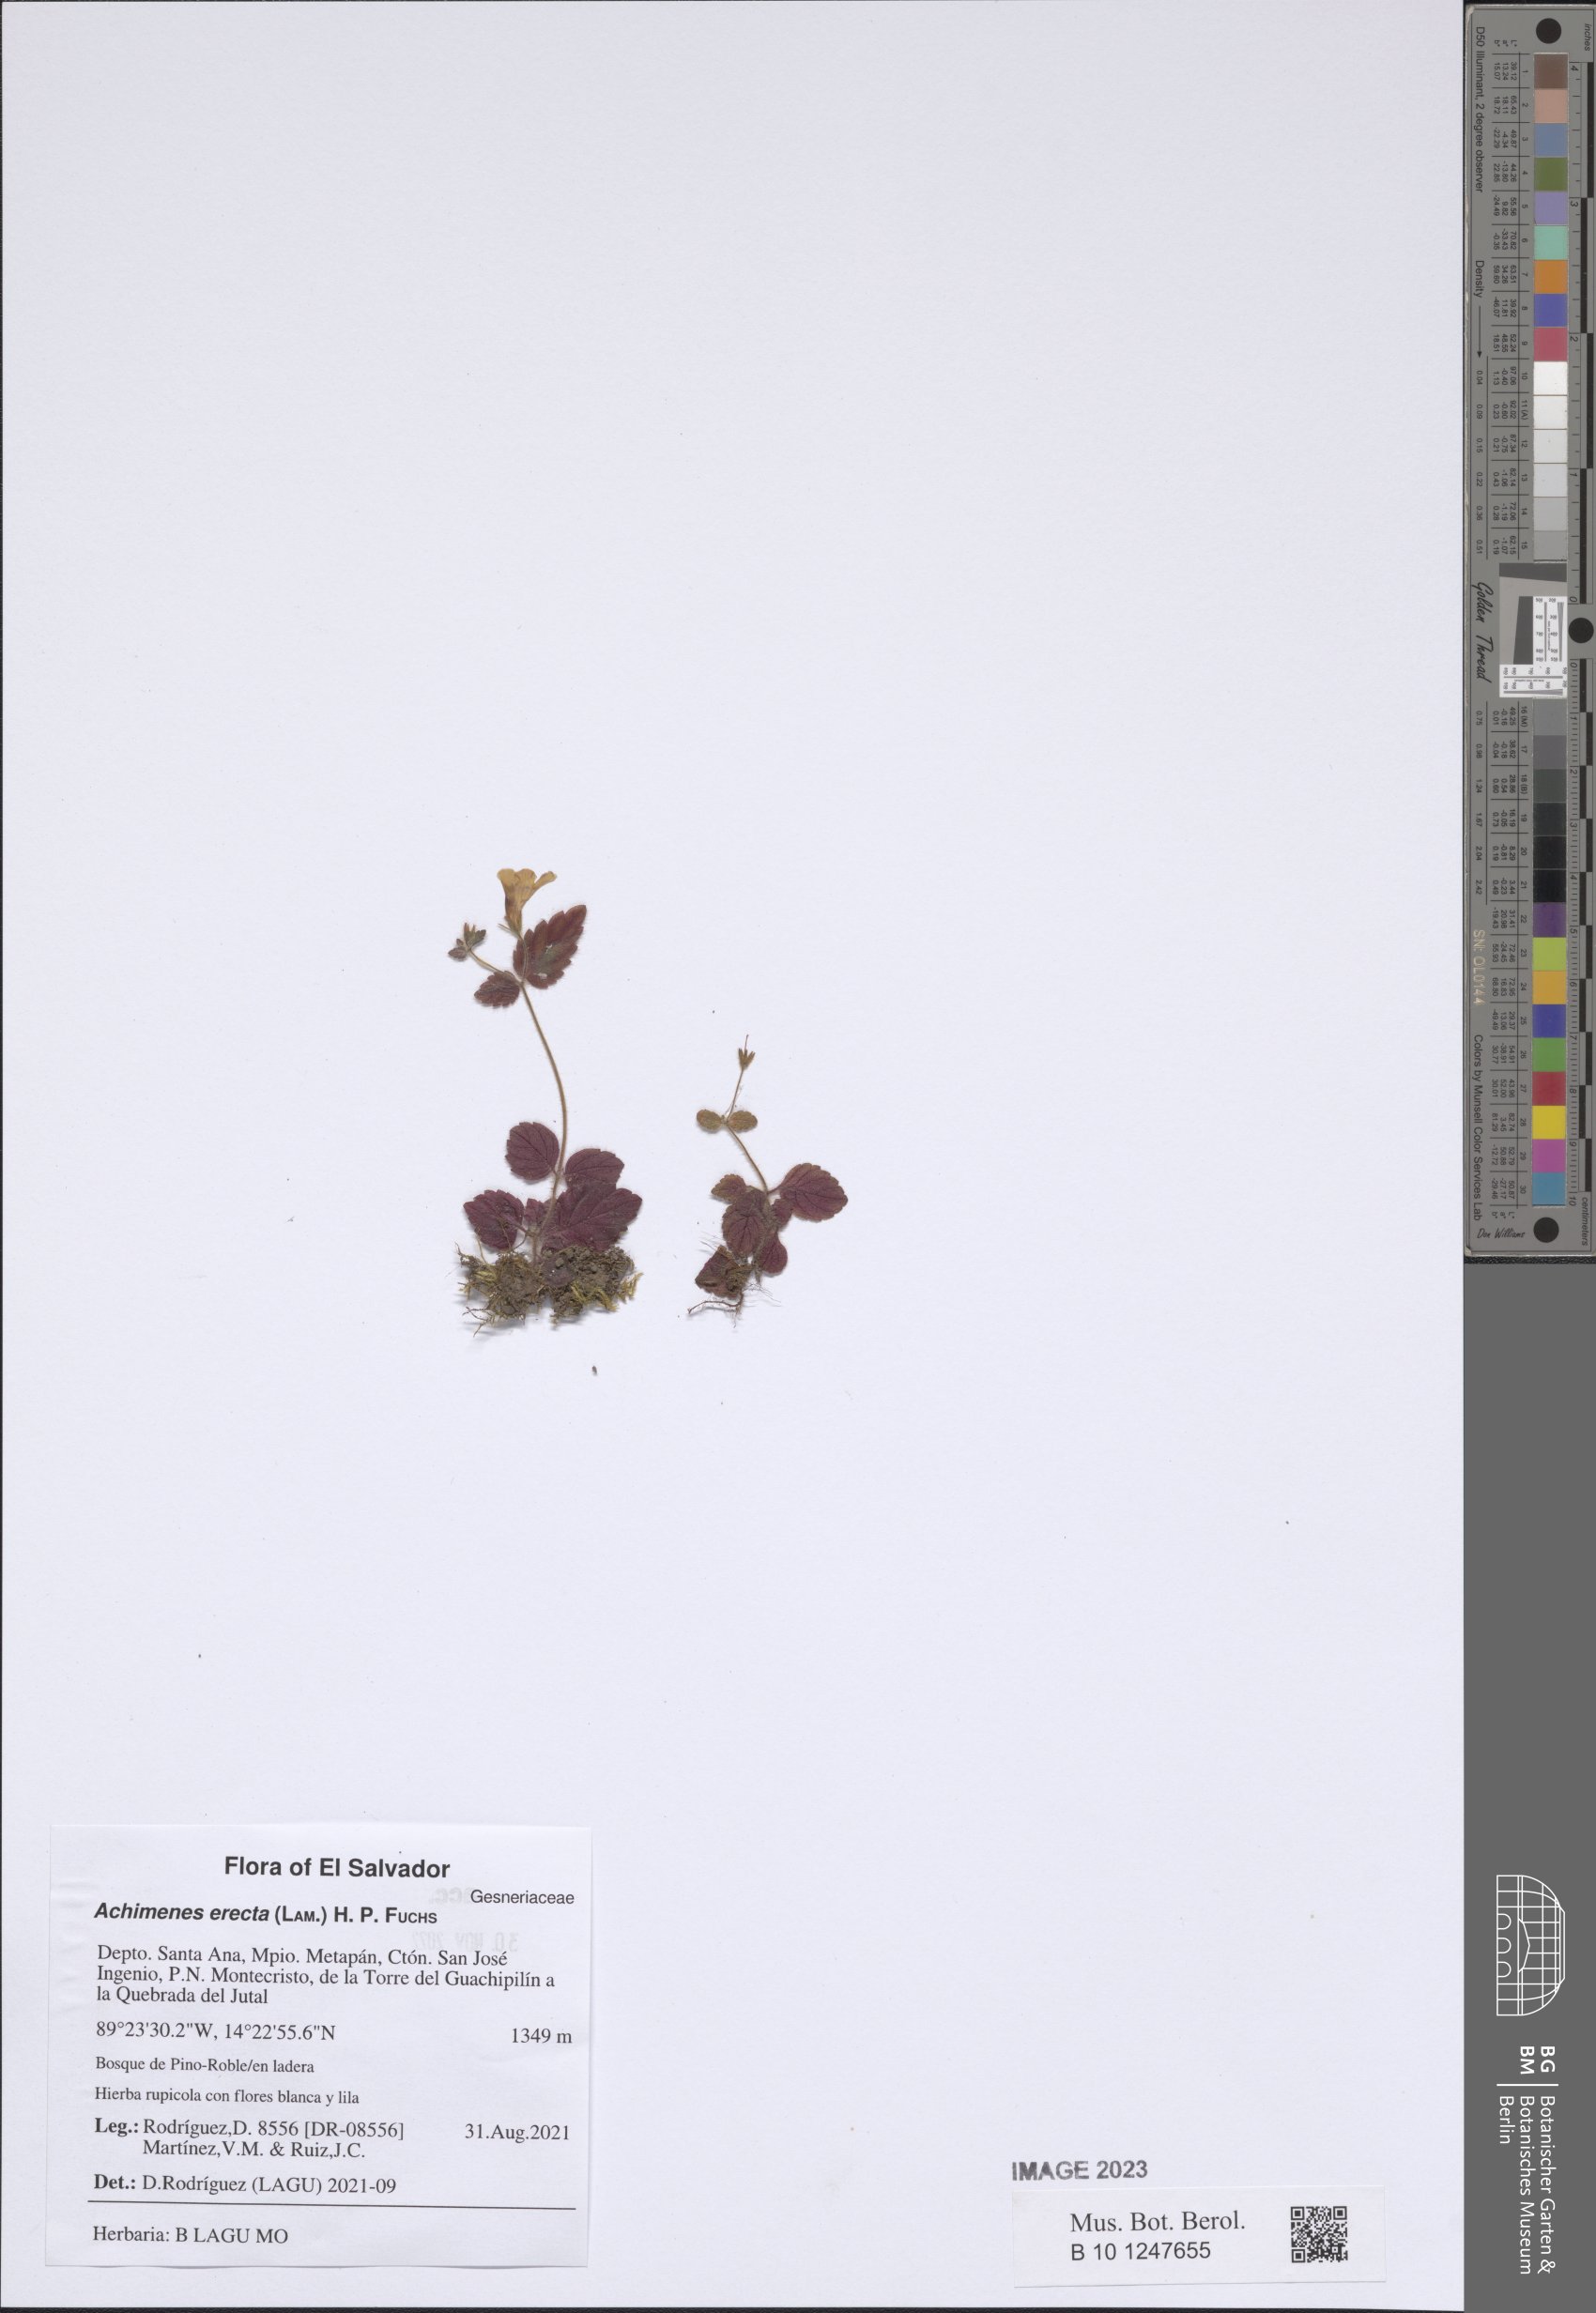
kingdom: Plantae
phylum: Tracheophyta
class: Magnoliopsida
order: Lamiales
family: Gesneriaceae
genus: Achimenes
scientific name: Achimenes erecta
